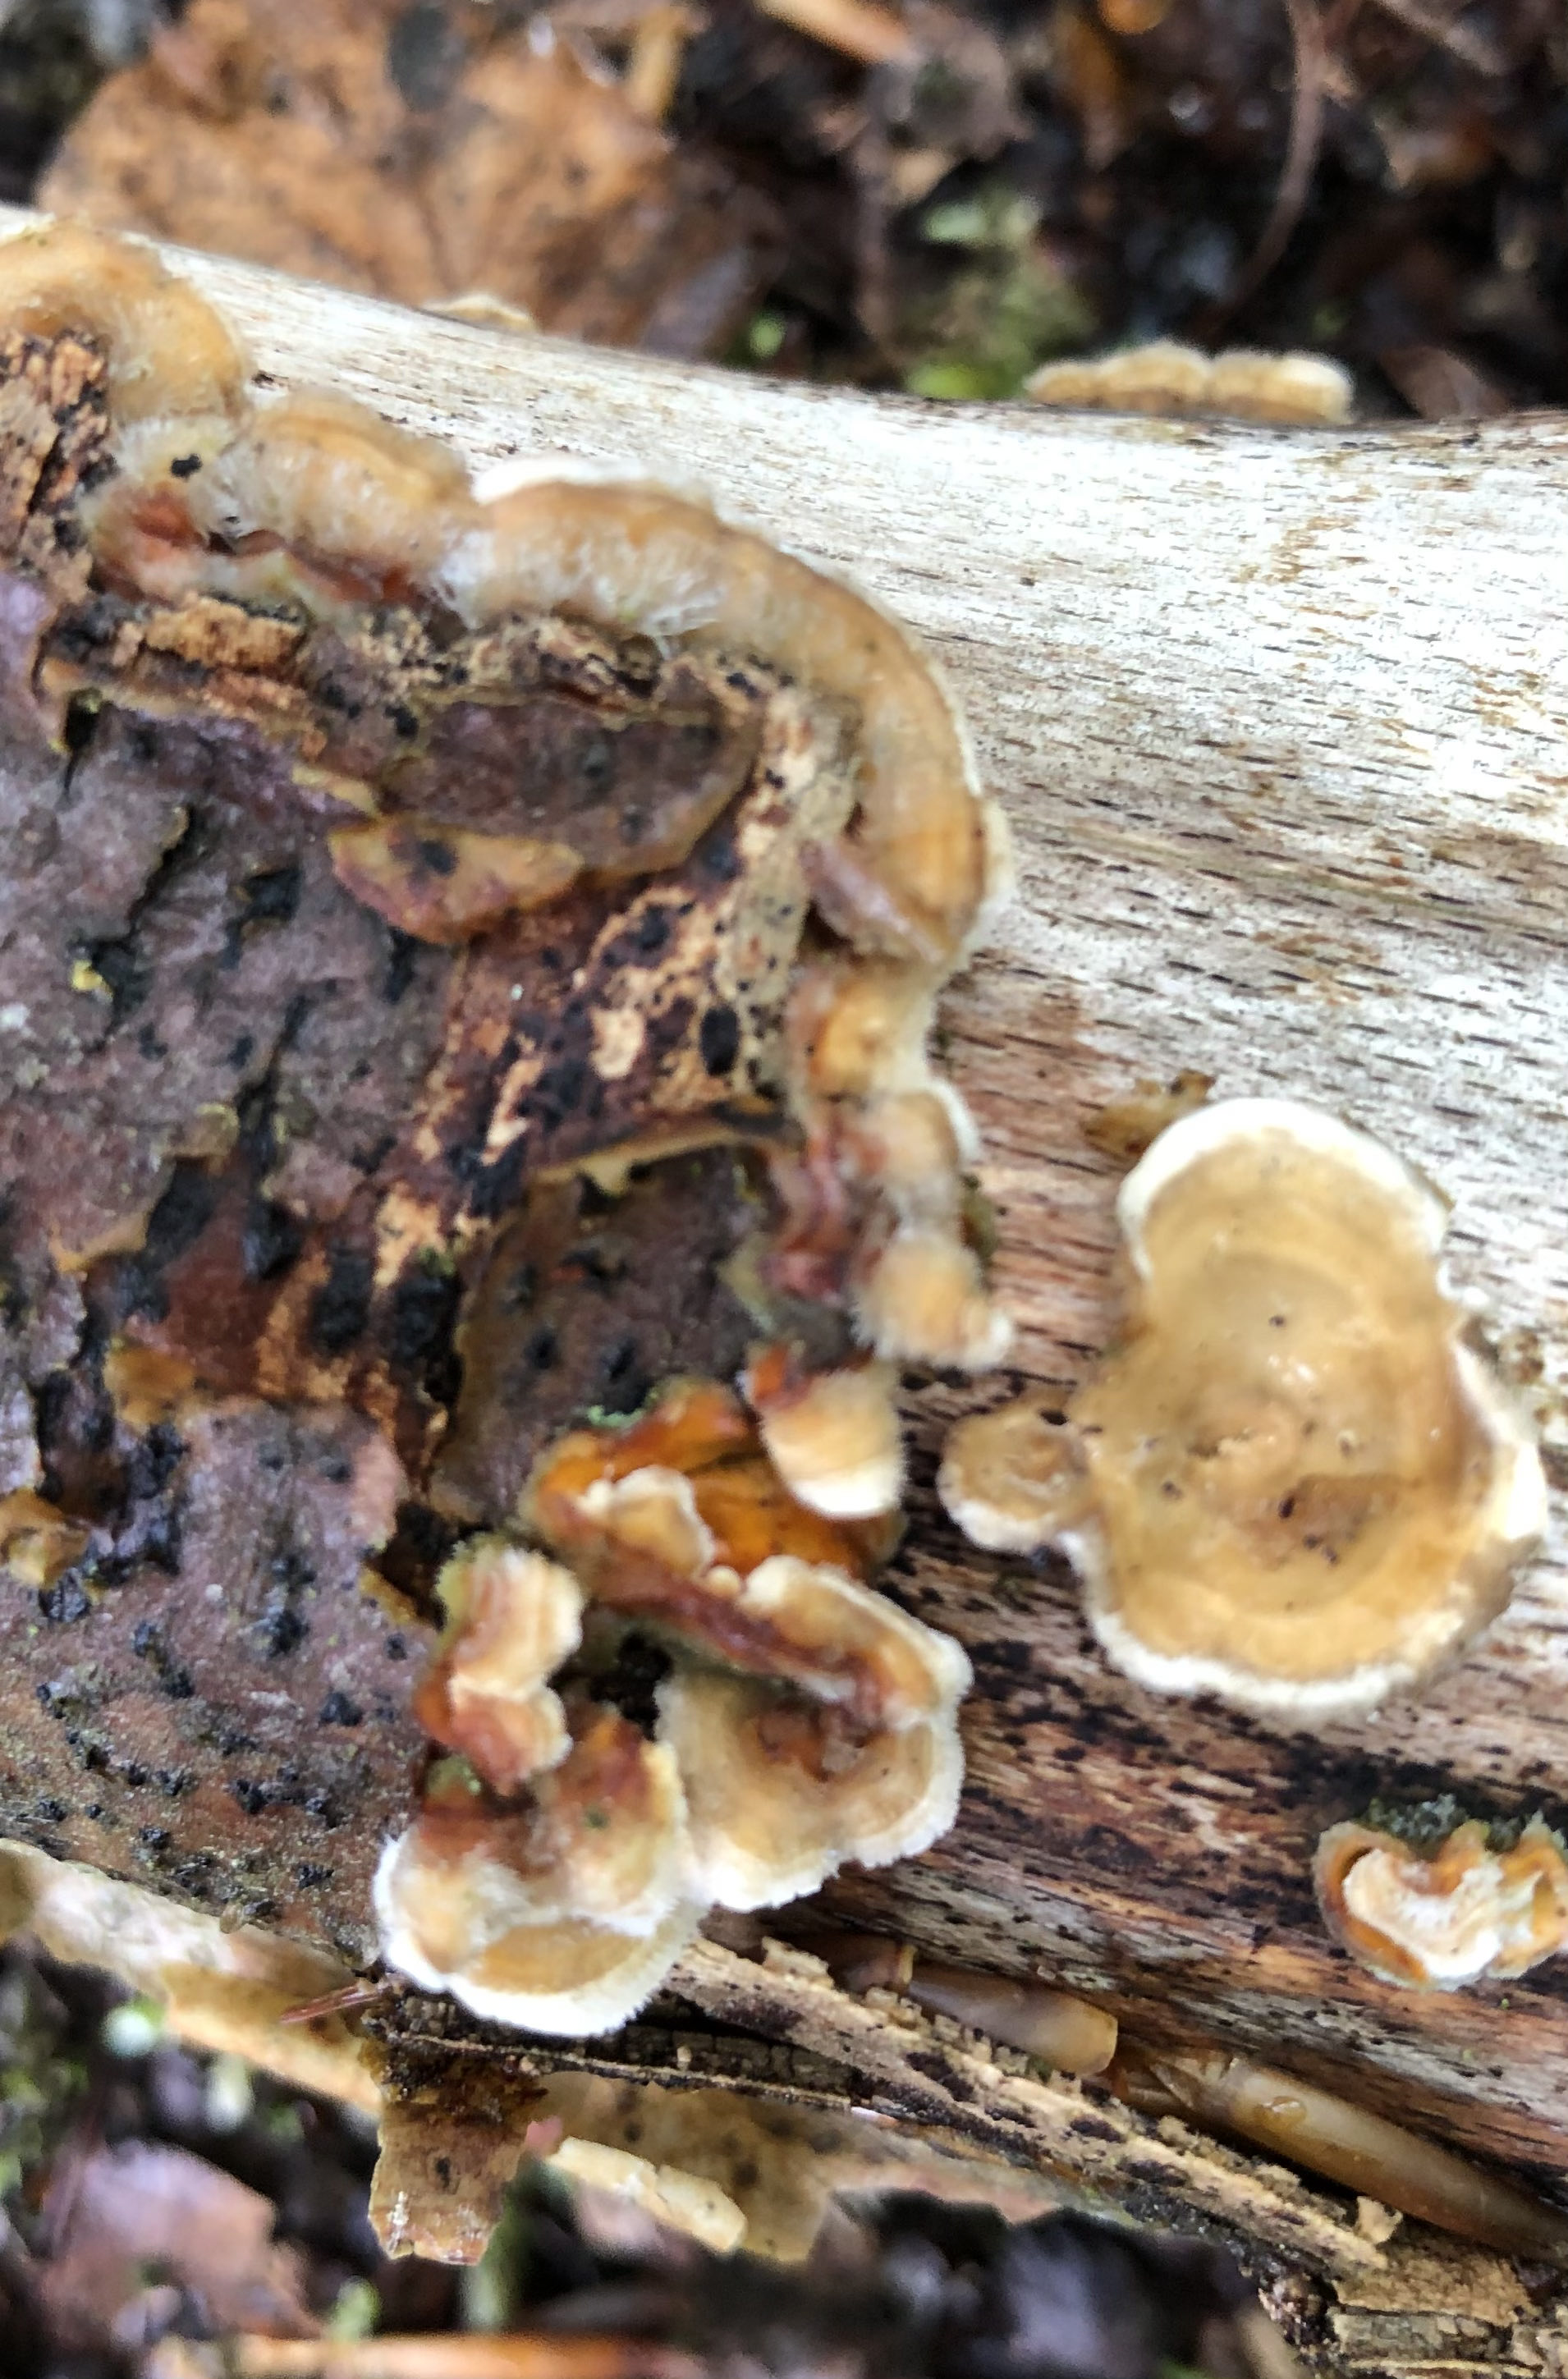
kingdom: Fungi
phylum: Basidiomycota
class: Agaricomycetes
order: Polyporales
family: Polyporaceae
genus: Trametes
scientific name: Trametes hirsuta
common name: håret læderporesvamp
